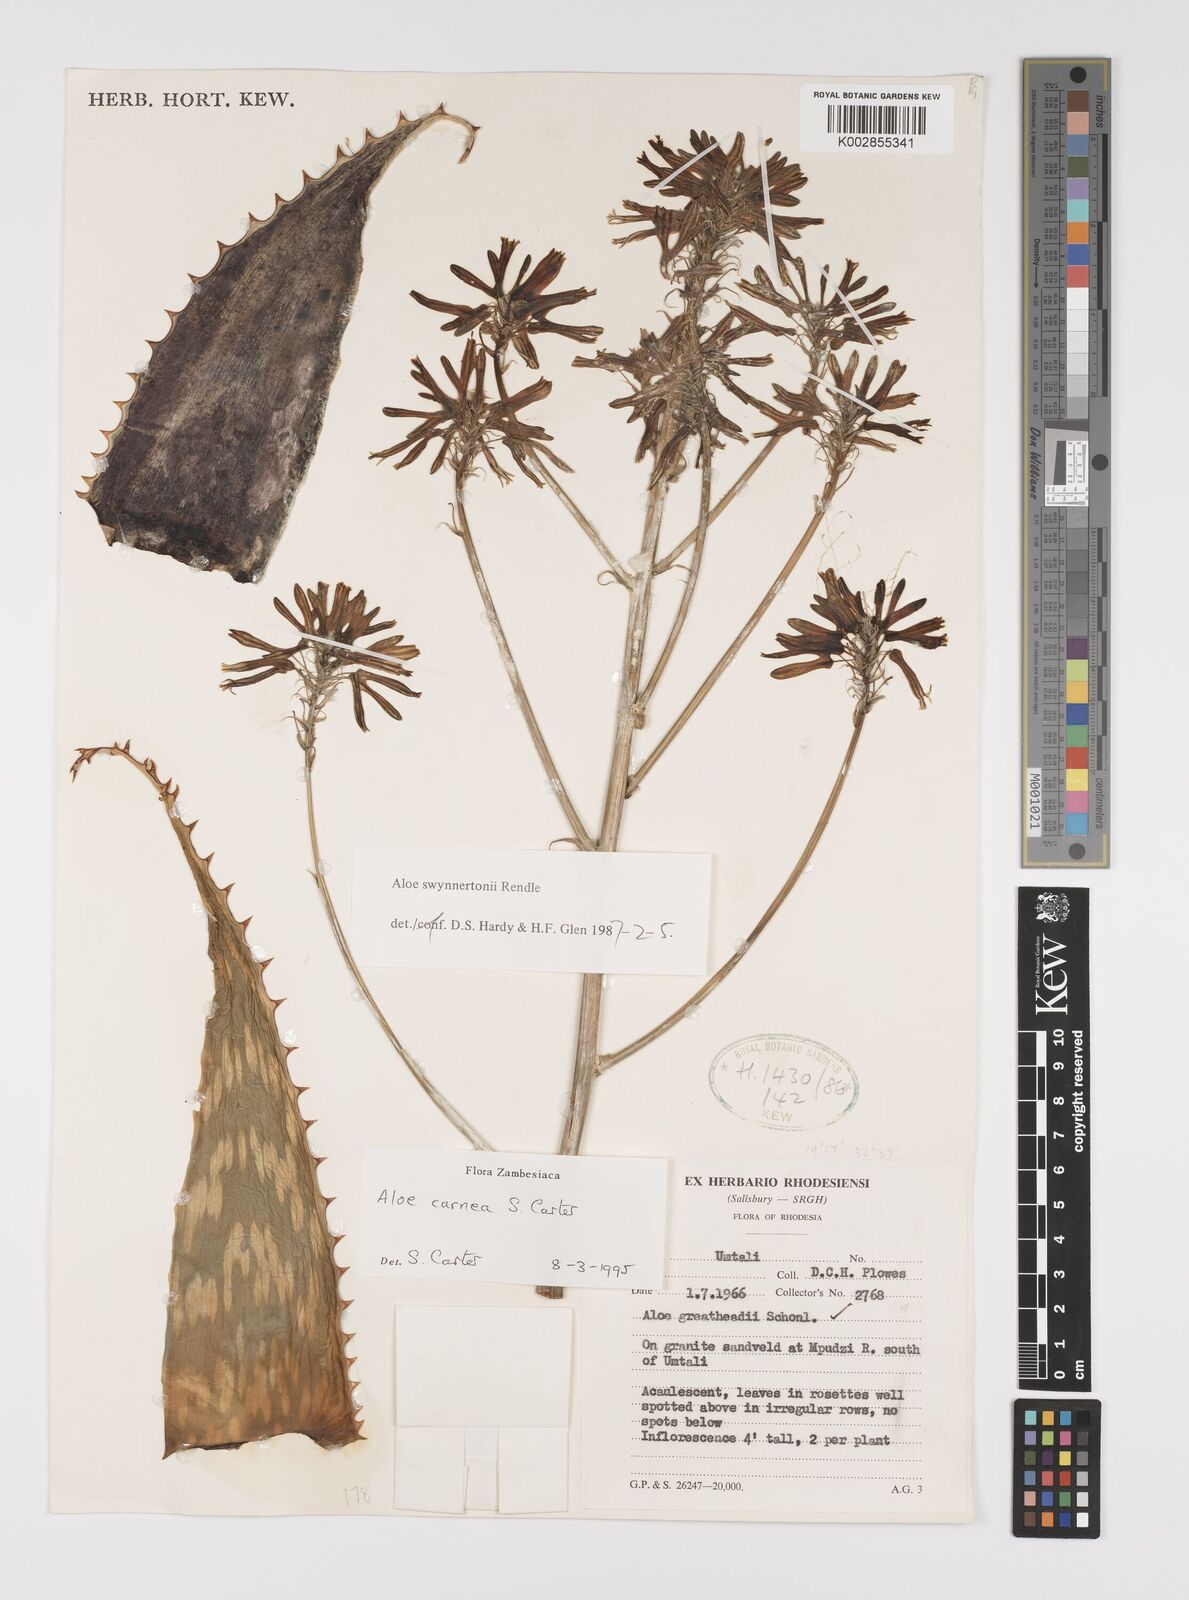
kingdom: Plantae
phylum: Tracheophyta
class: Liliopsida
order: Asparagales
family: Asphodelaceae
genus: Aloe
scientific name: Aloe carnea
